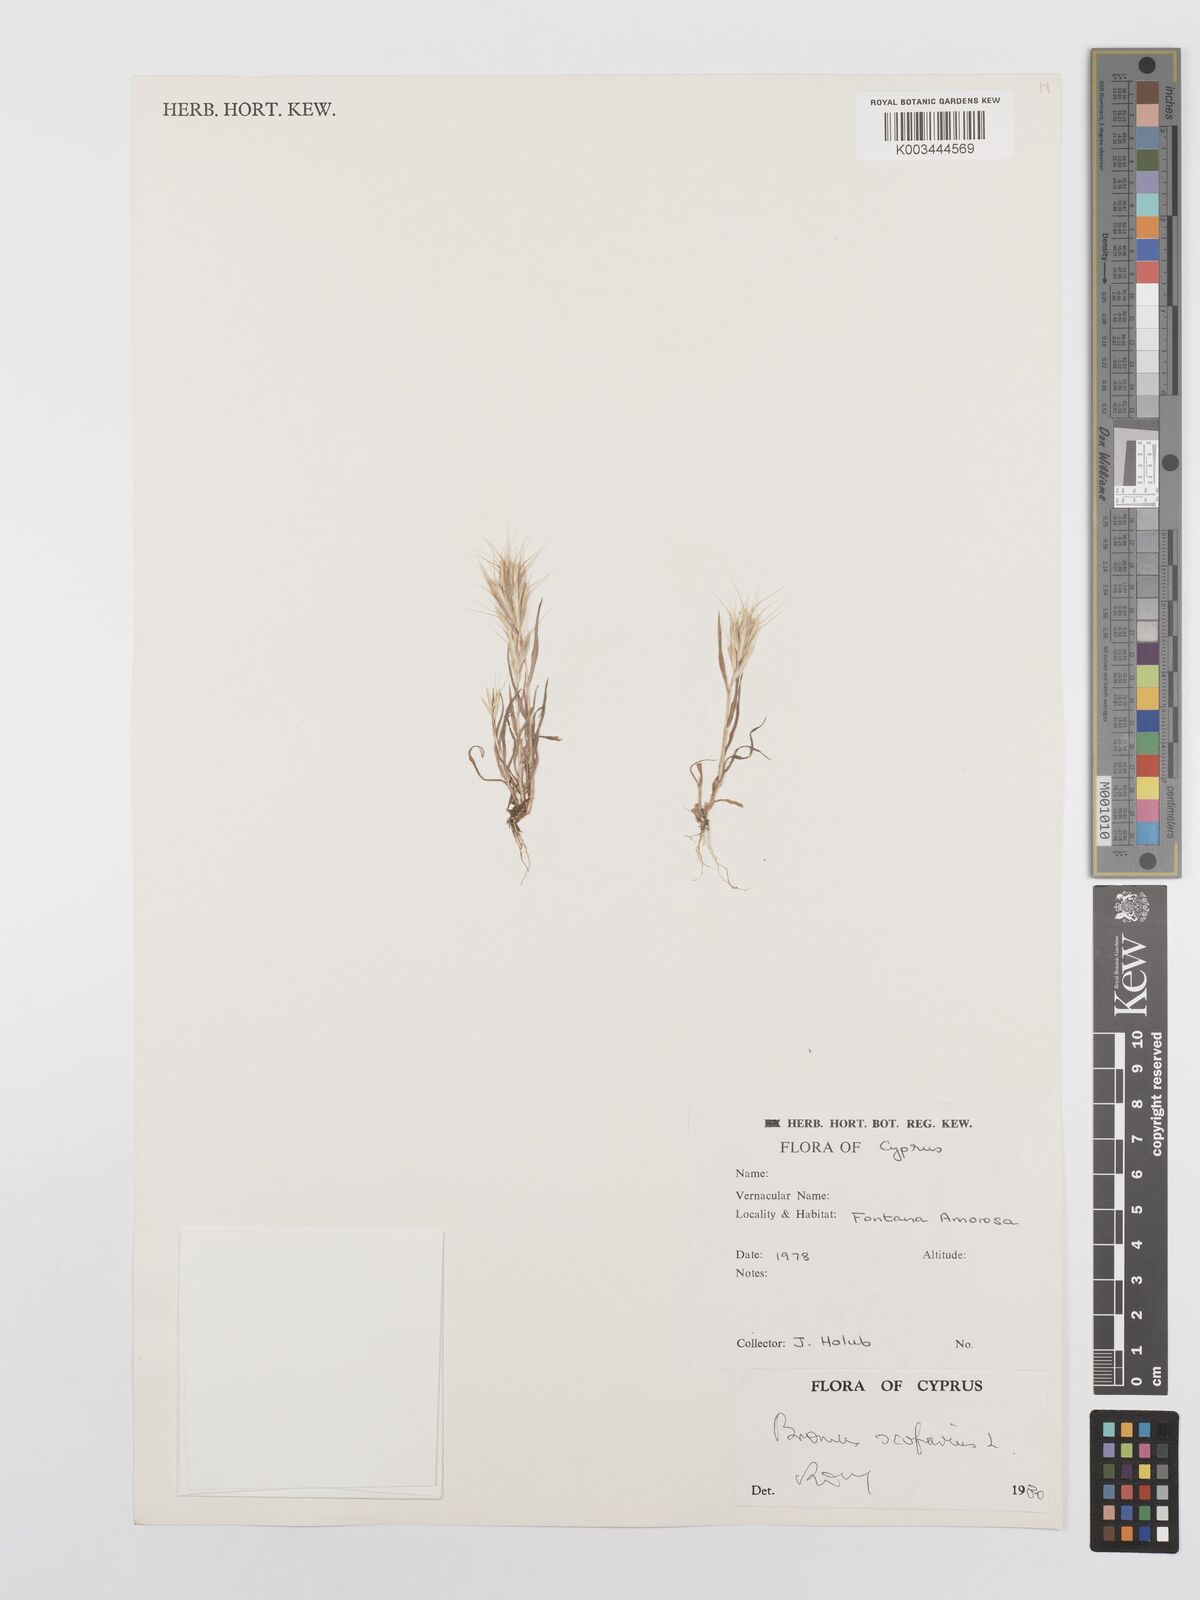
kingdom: Plantae
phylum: Tracheophyta
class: Liliopsida
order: Poales
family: Poaceae
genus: Bromus
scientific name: Bromus scoparius
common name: Broom brome
